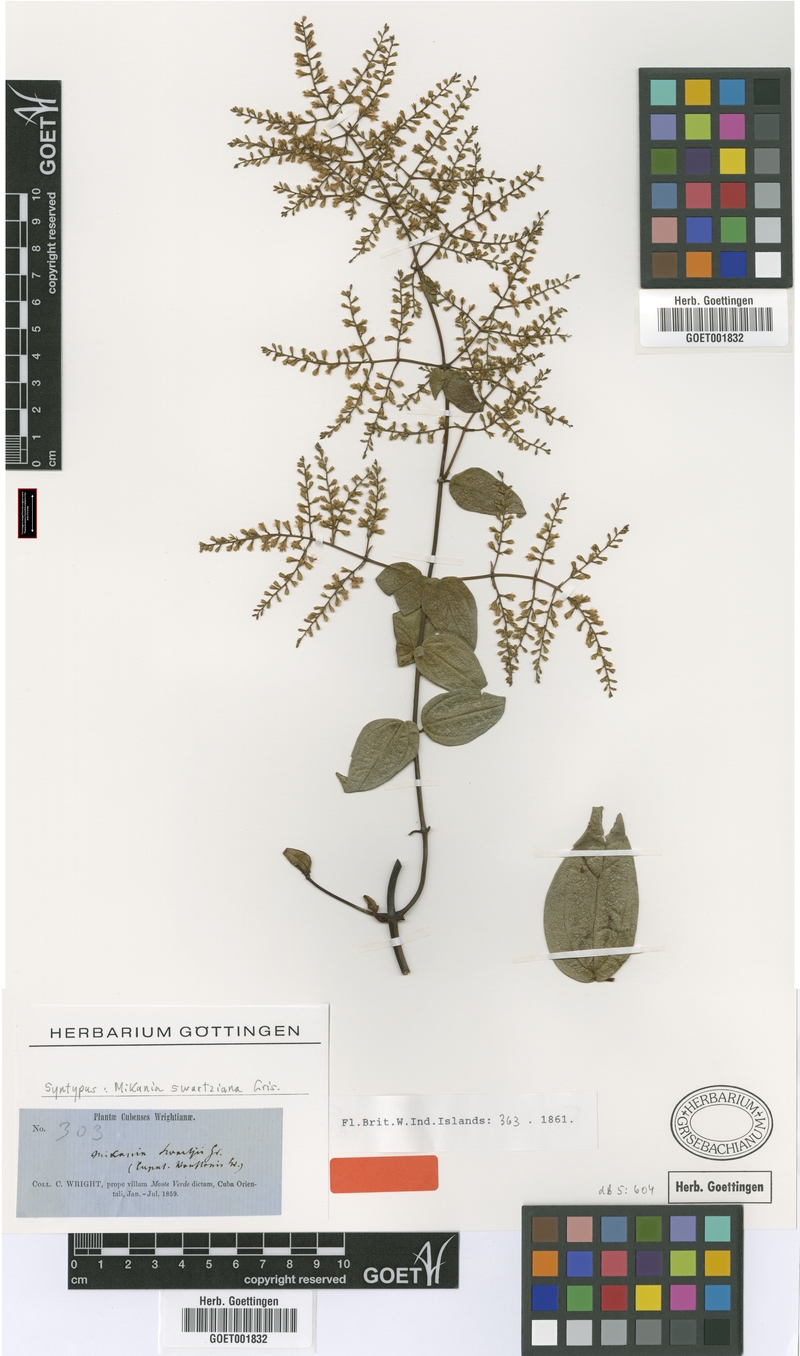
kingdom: Plantae
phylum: Tracheophyta
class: Magnoliopsida
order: Asterales
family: Asteraceae
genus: Mikania
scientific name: Mikania swartziana
